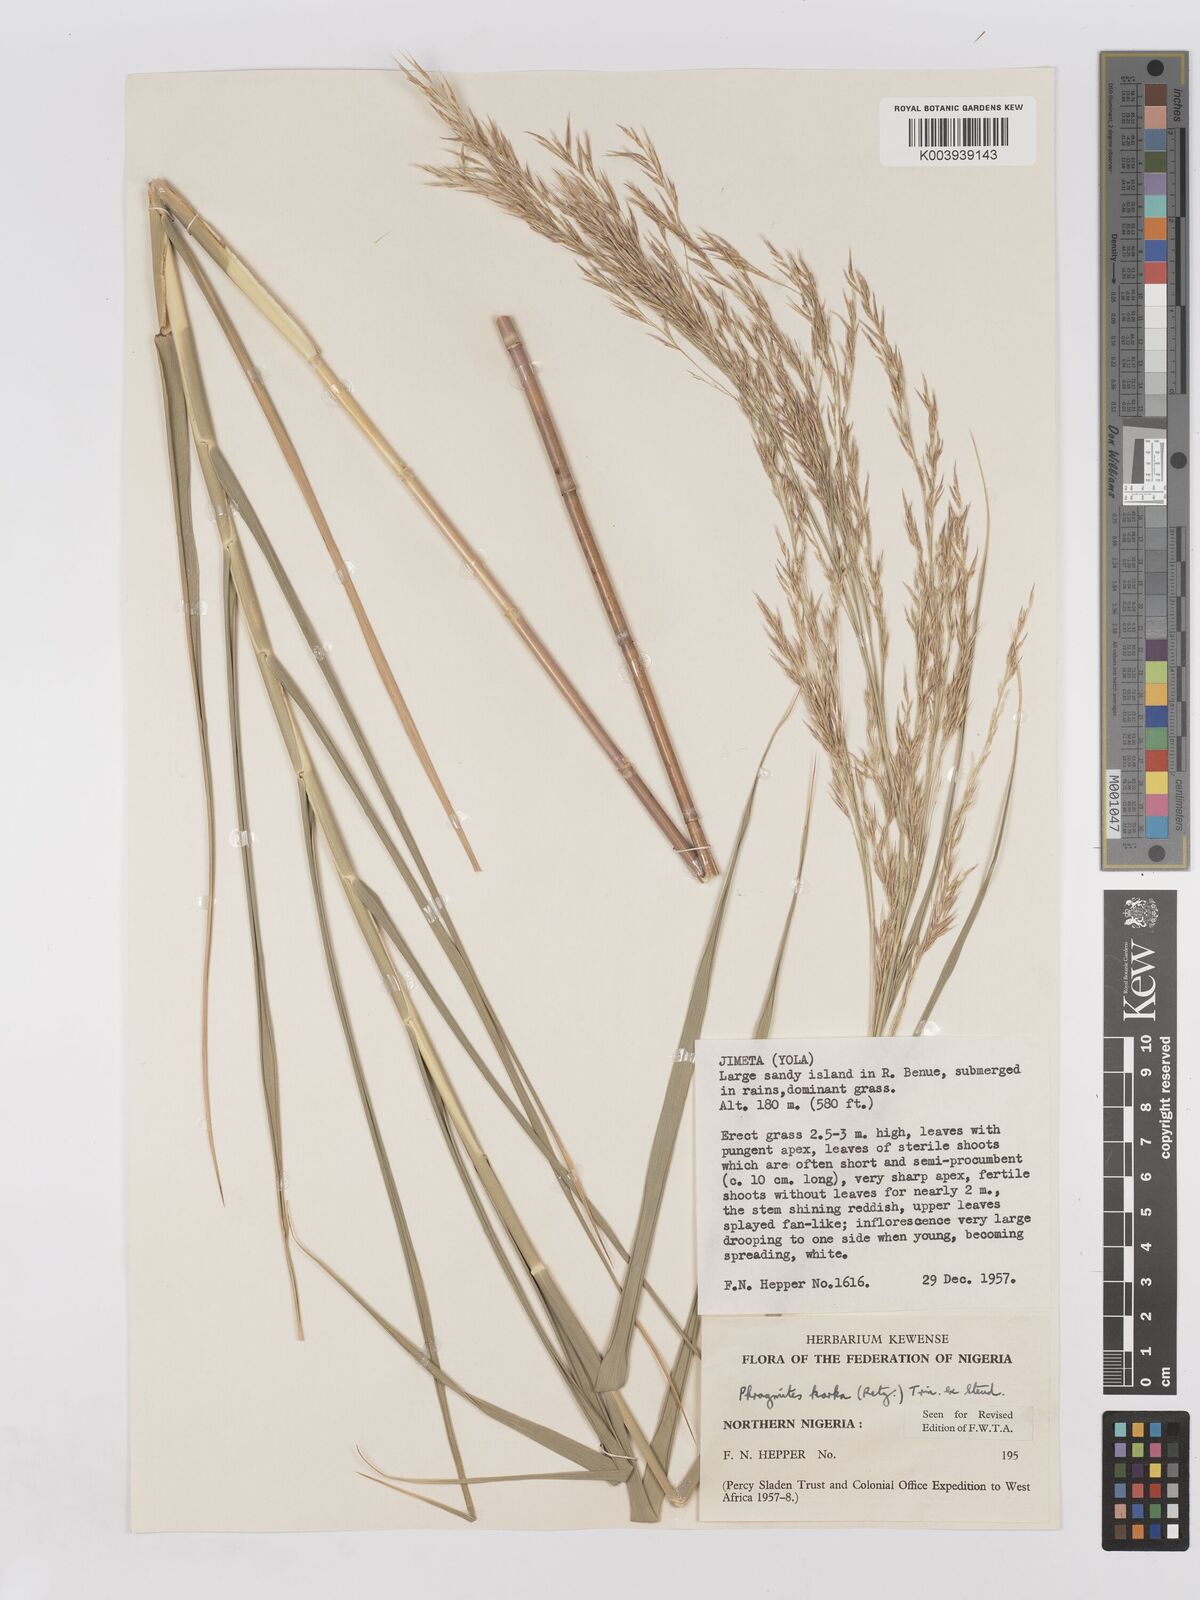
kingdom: Plantae
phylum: Tracheophyta
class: Liliopsida
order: Poales
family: Poaceae
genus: Phragmites
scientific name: Phragmites karka
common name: Tropical reed
